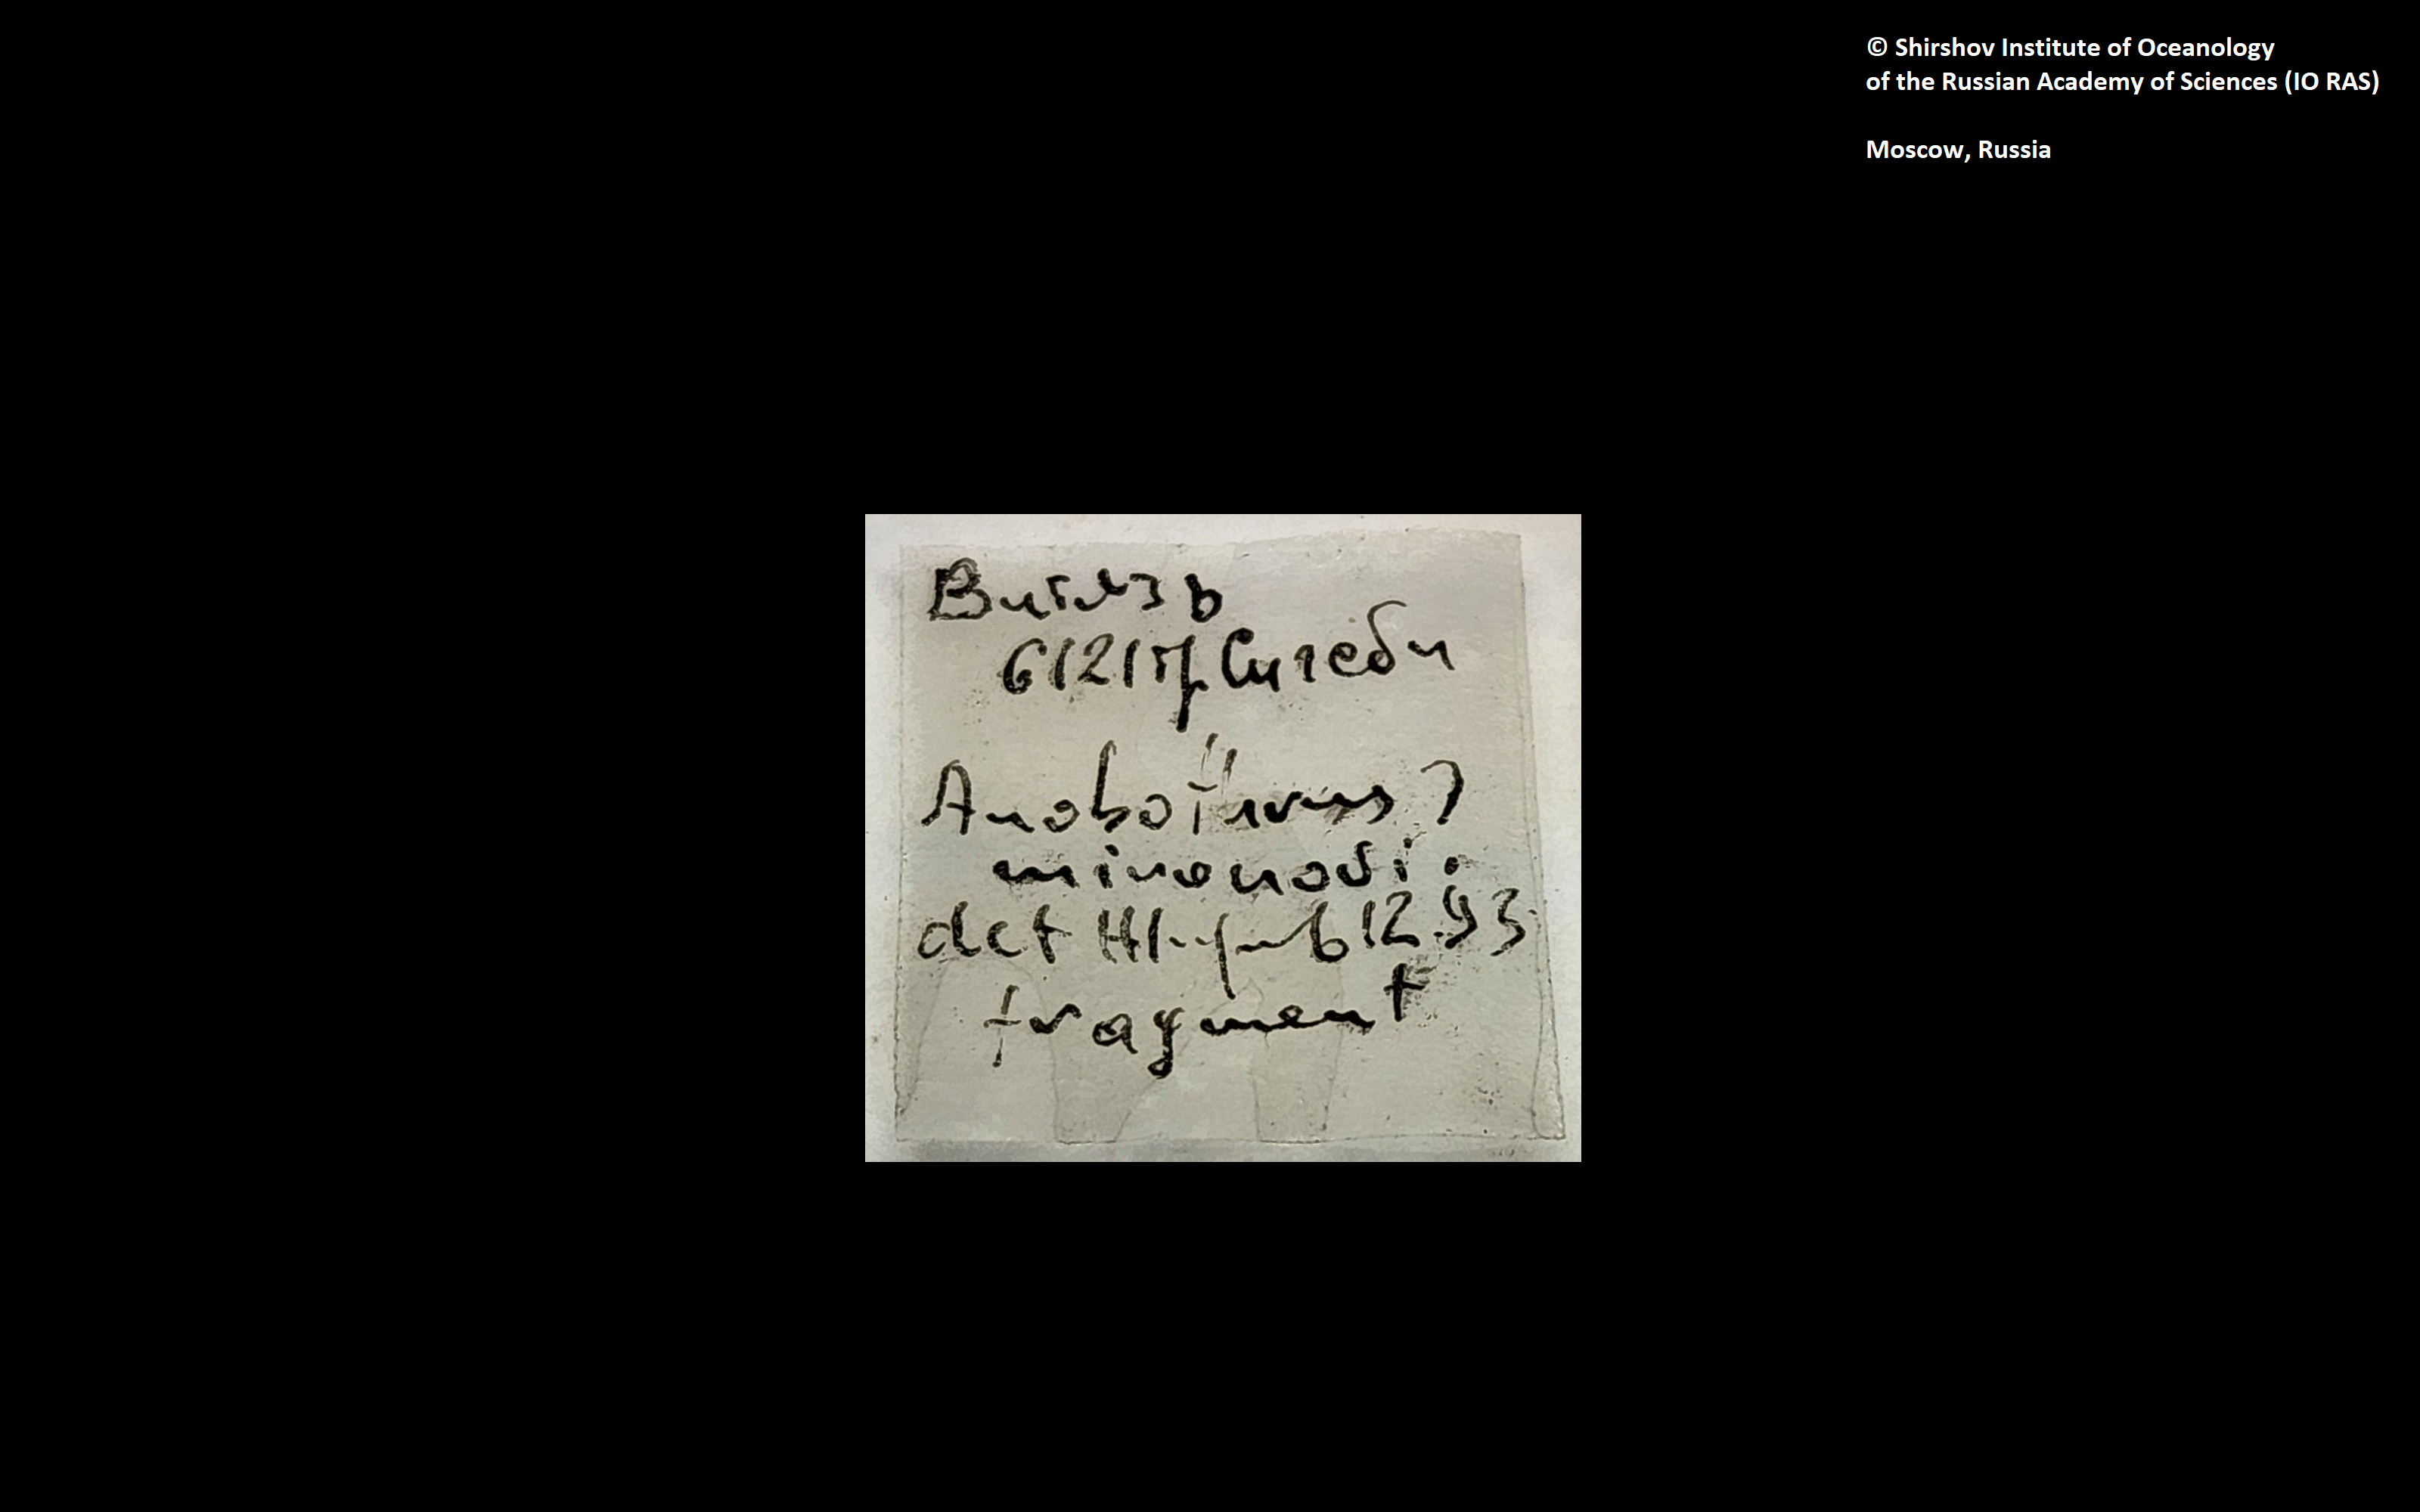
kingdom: Animalia
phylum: Annelida
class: Polychaeta
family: Ampharetidae
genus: Anobothrus
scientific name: Anobothrus mironovi
